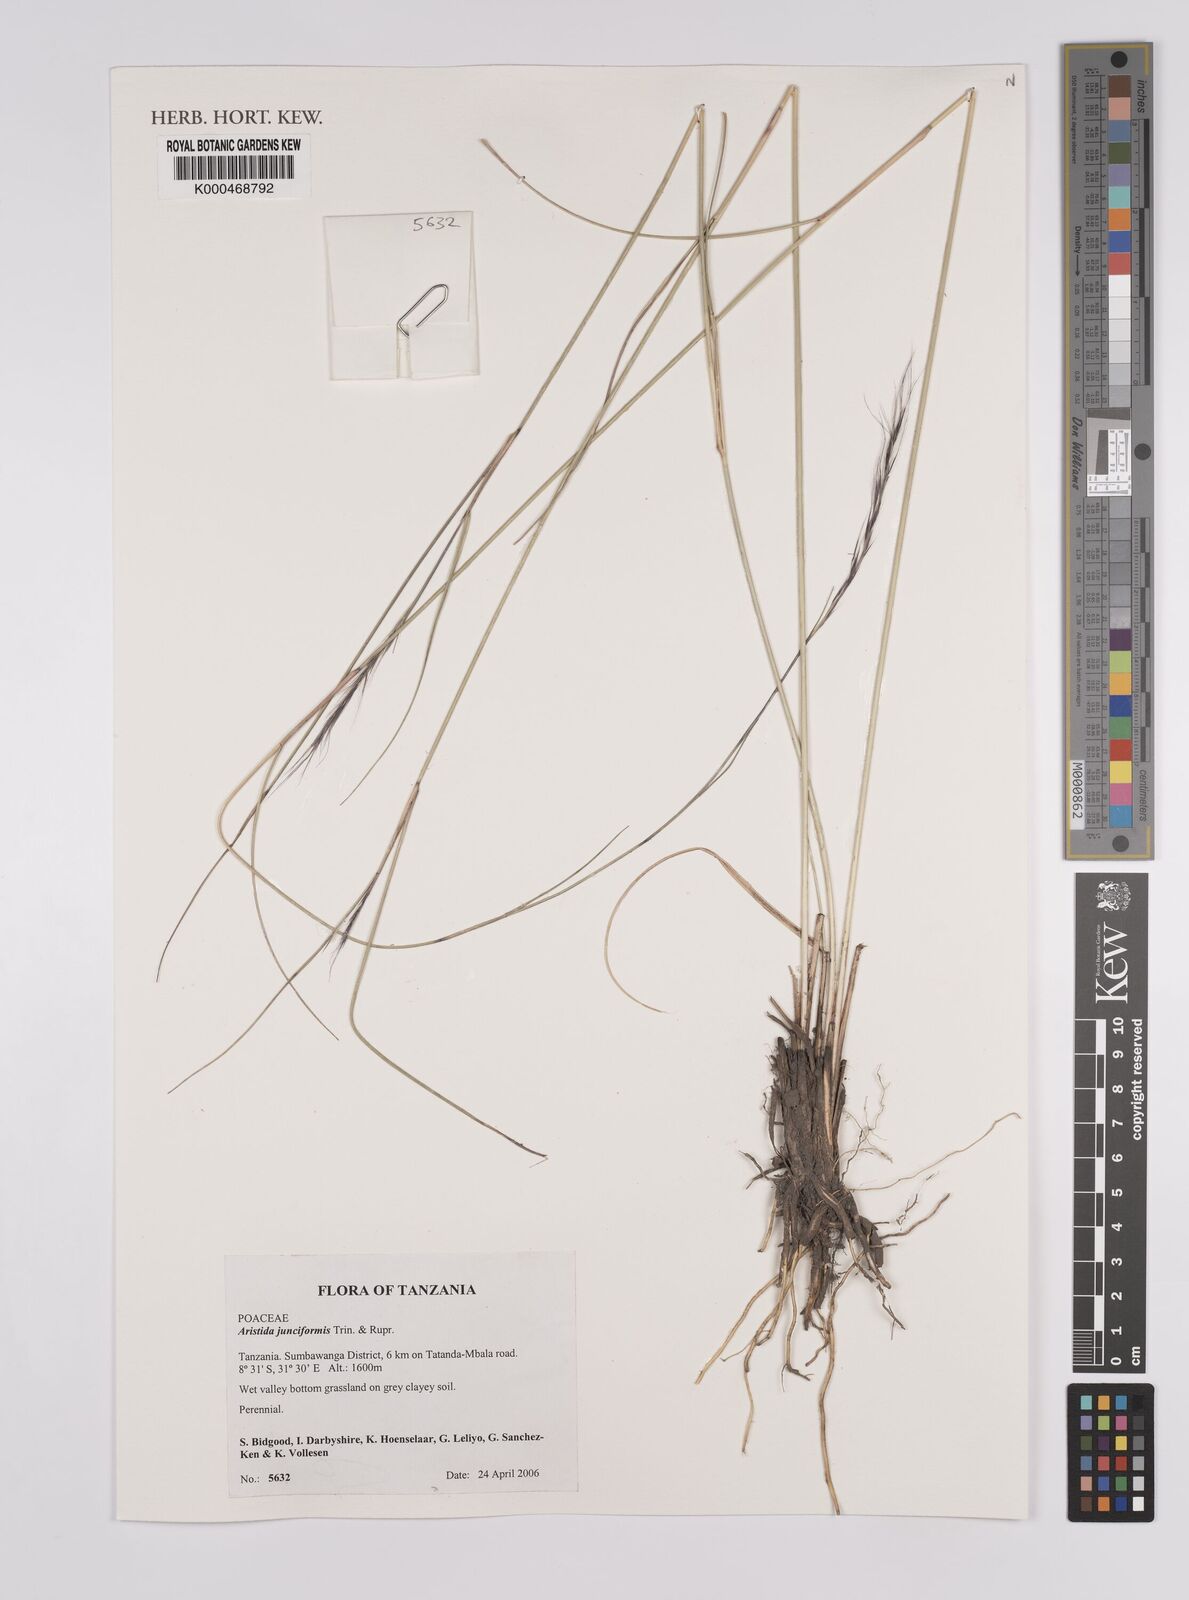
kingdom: Plantae
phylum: Tracheophyta
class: Liliopsida
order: Poales
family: Poaceae
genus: Aristida
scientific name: Aristida junciformis
